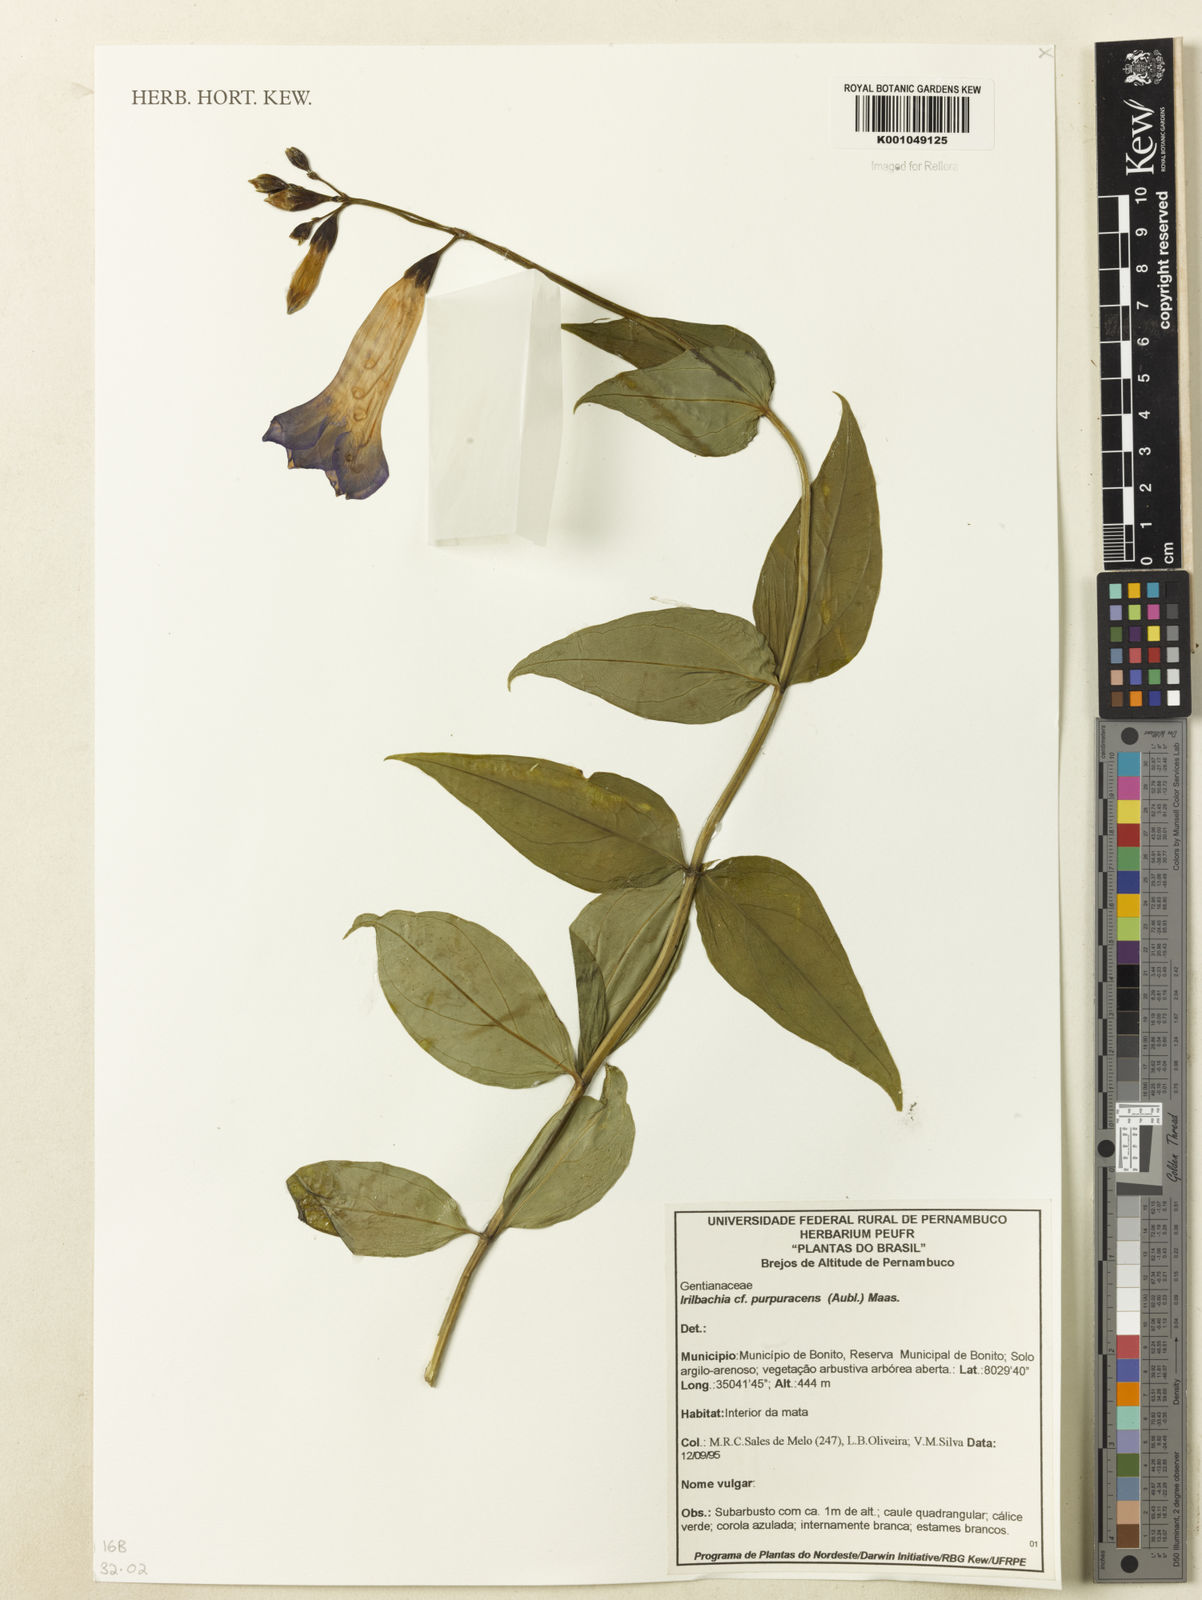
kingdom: Plantae
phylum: Tracheophyta
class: Magnoliopsida
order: Gentianales
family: Gentianaceae
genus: Chelonanthus
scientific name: Chelonanthus purpurascens
